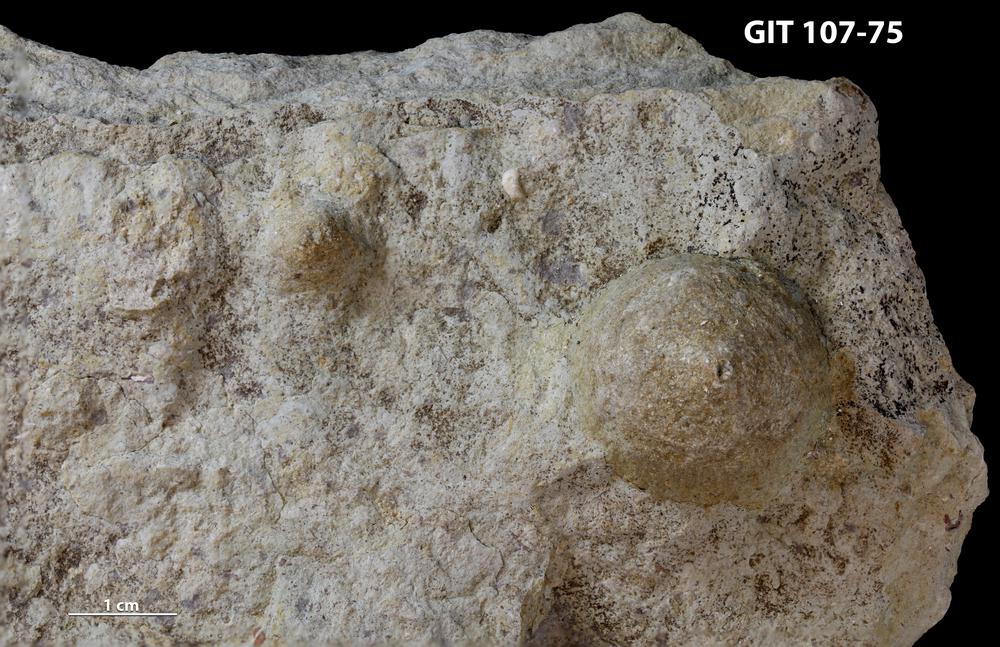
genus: Amphorichnus
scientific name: Amphorichnus
